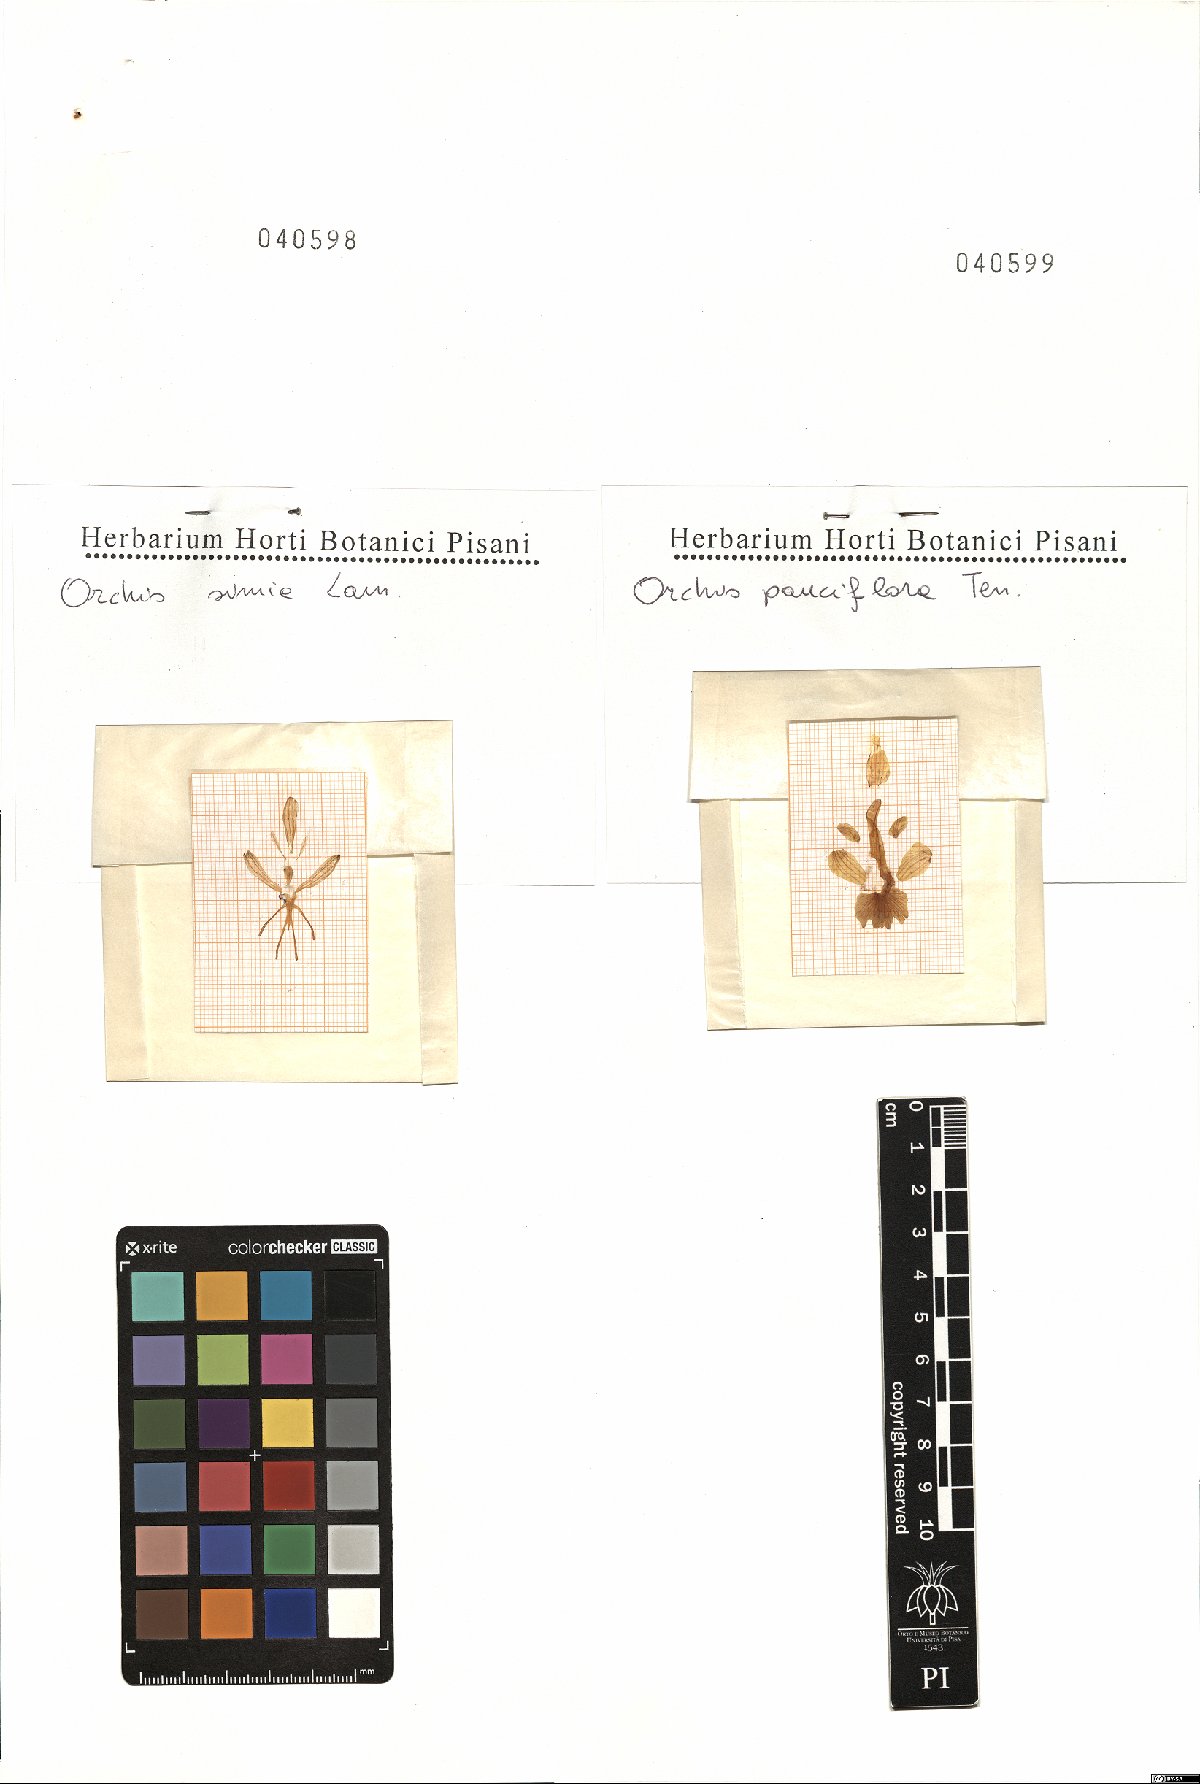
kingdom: Plantae
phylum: Tracheophyta
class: Liliopsida
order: Asparagales
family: Orchidaceae
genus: Orchis
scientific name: Orchis pauciflora
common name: Few-flowered orchid
